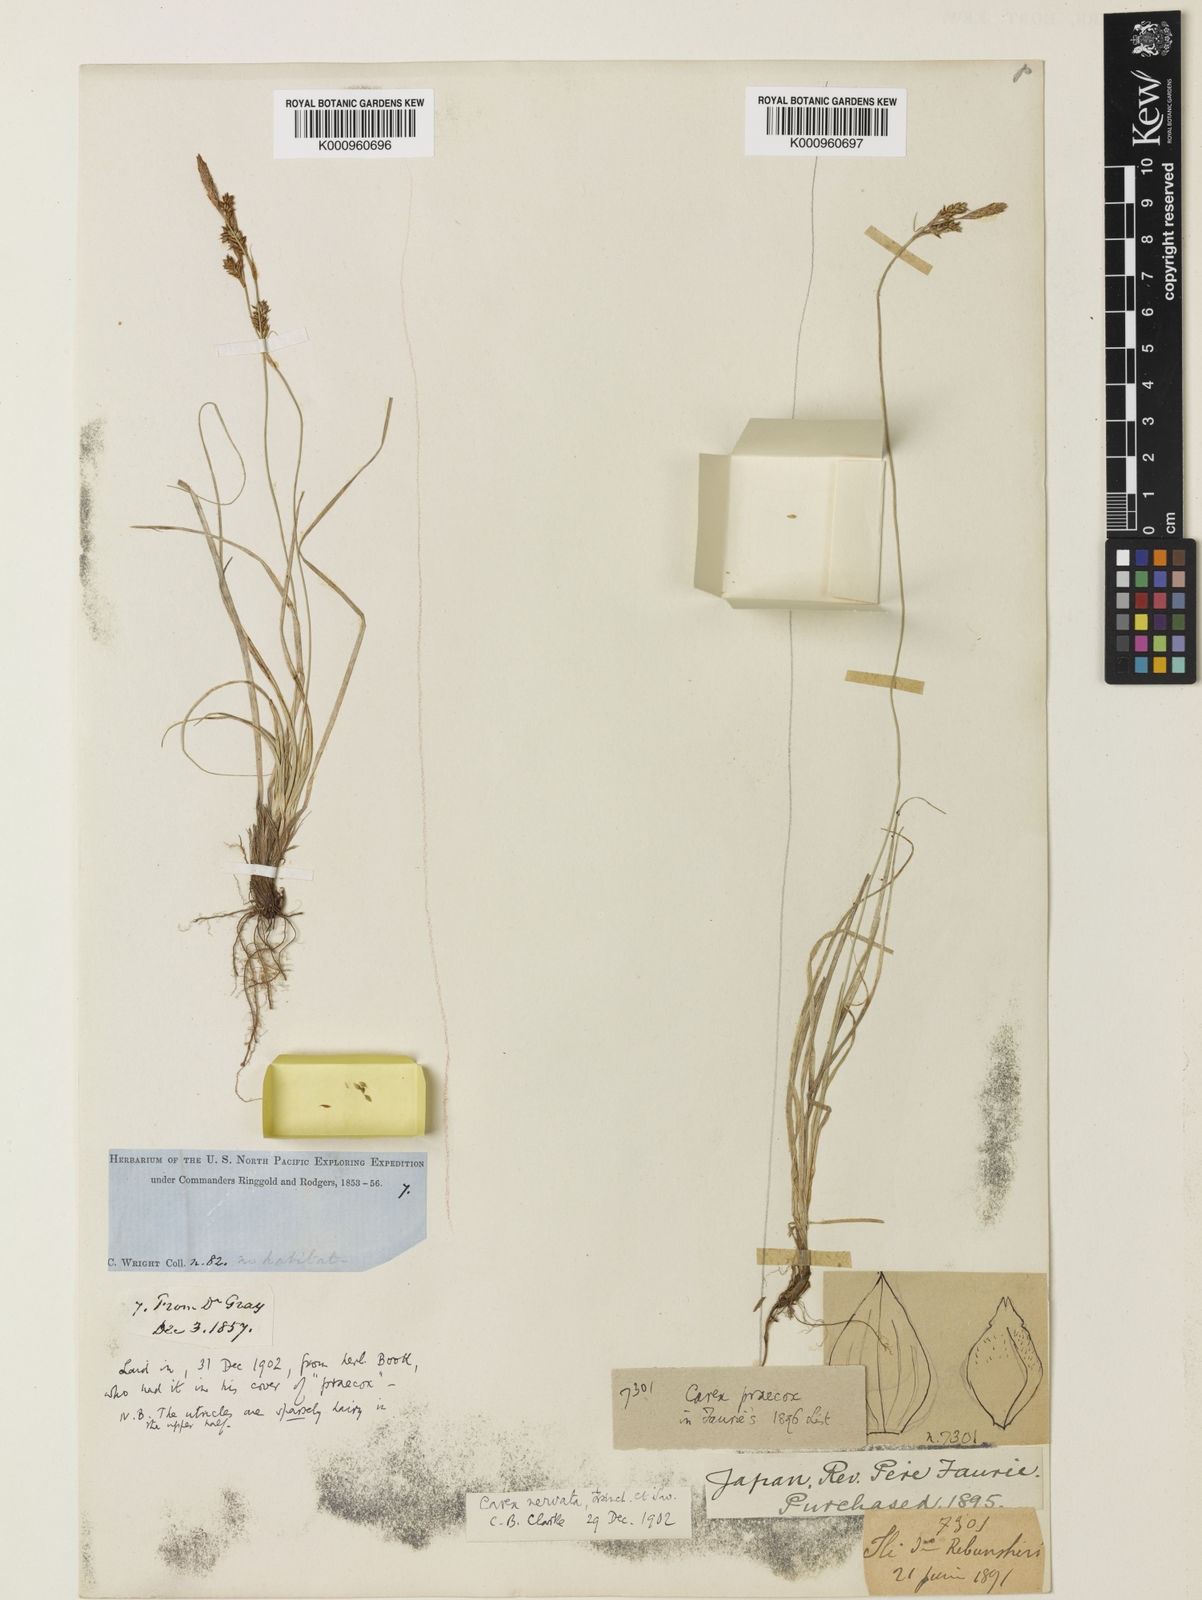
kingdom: Plantae
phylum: Tracheophyta
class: Liliopsida
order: Poales
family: Cyperaceae
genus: Carex
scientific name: Carex caryophyllea
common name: Spring sedge
